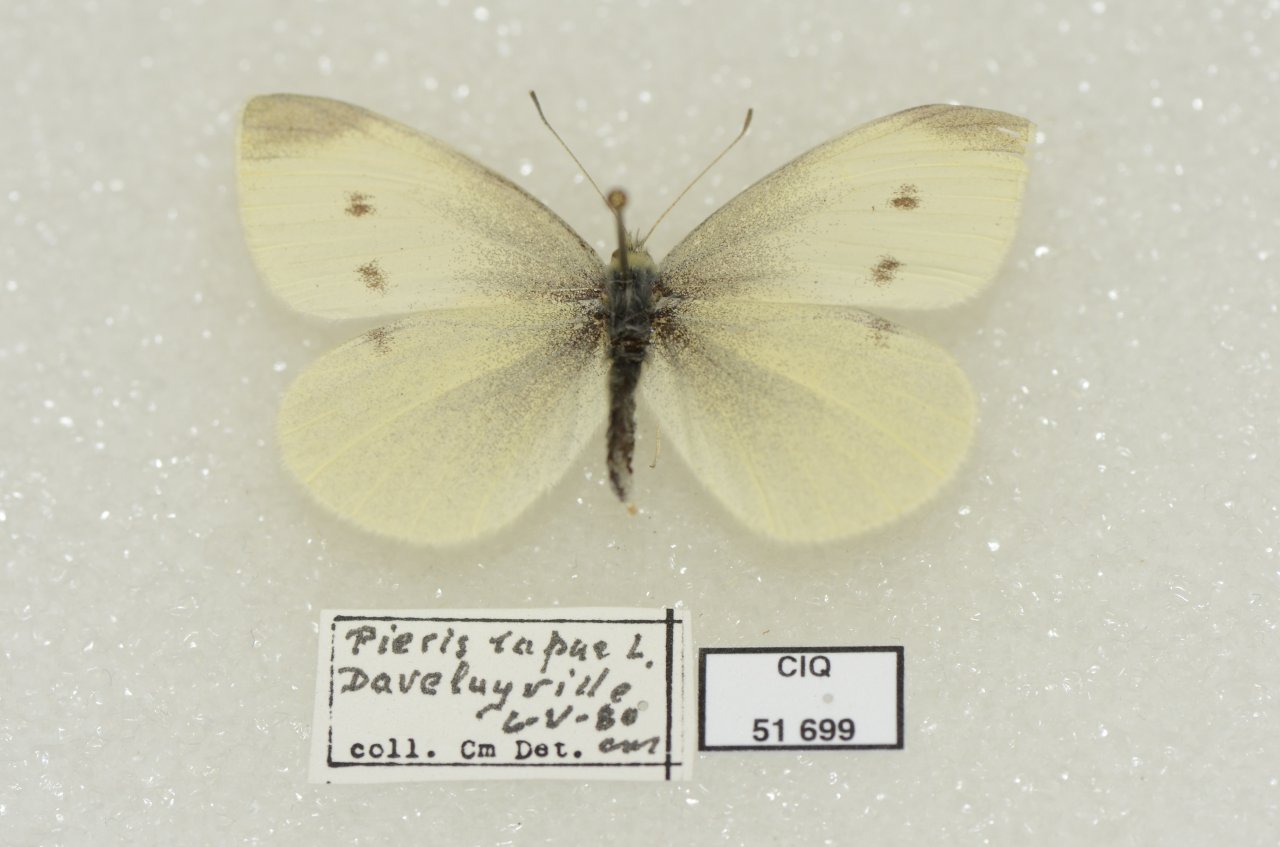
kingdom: Animalia
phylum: Arthropoda
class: Insecta
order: Lepidoptera
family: Pieridae
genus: Pieris
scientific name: Pieris rapae
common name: Cabbage White
